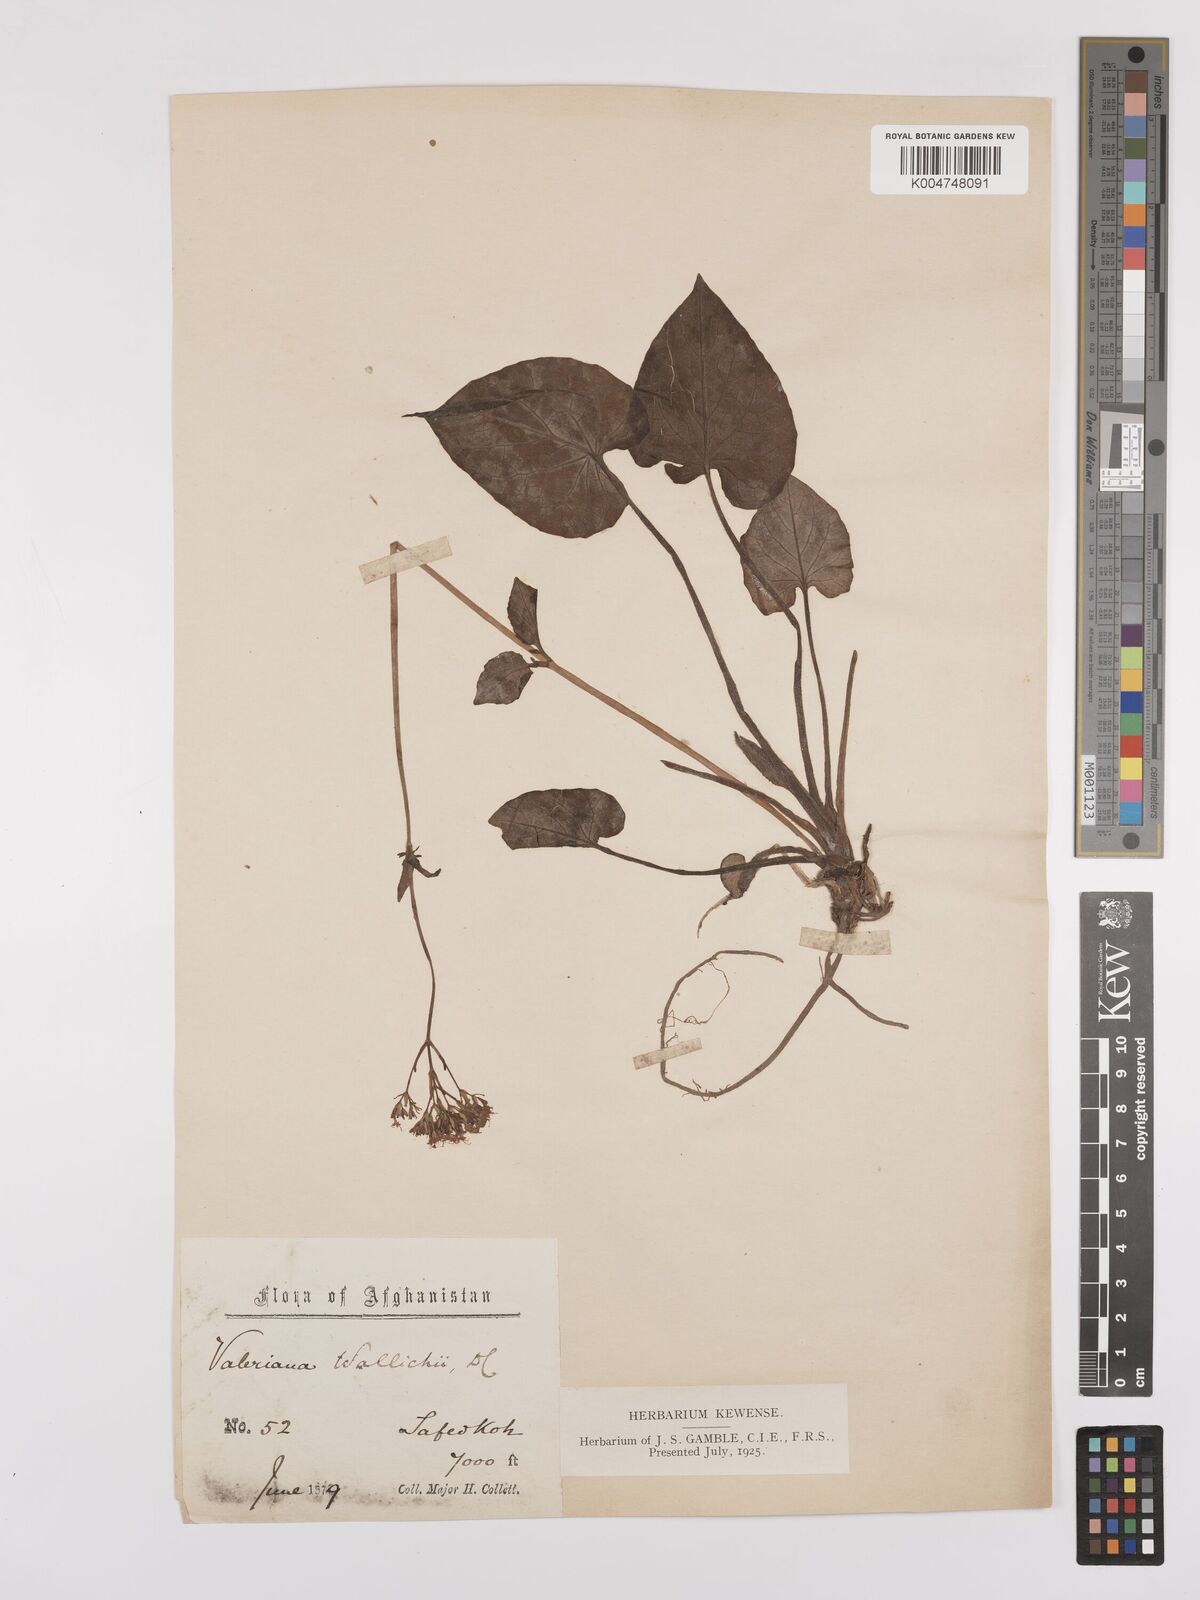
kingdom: Plantae
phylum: Tracheophyta
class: Magnoliopsida
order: Dipsacales
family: Caprifoliaceae
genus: Valeriana
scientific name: Valeriana
